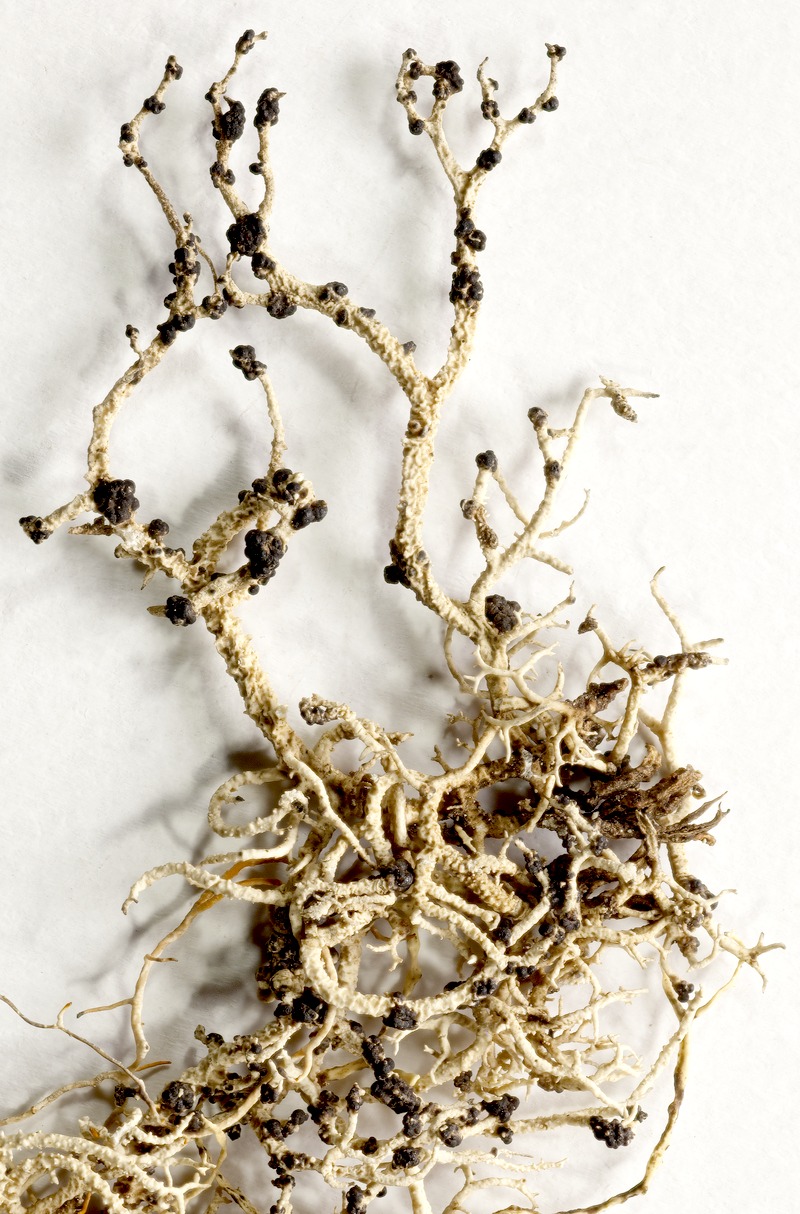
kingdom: Fungi
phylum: Ascomycota
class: Lecanoromycetes
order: Lecanorales
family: Parmeliaceae
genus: Phacopsis
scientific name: Phacopsis
